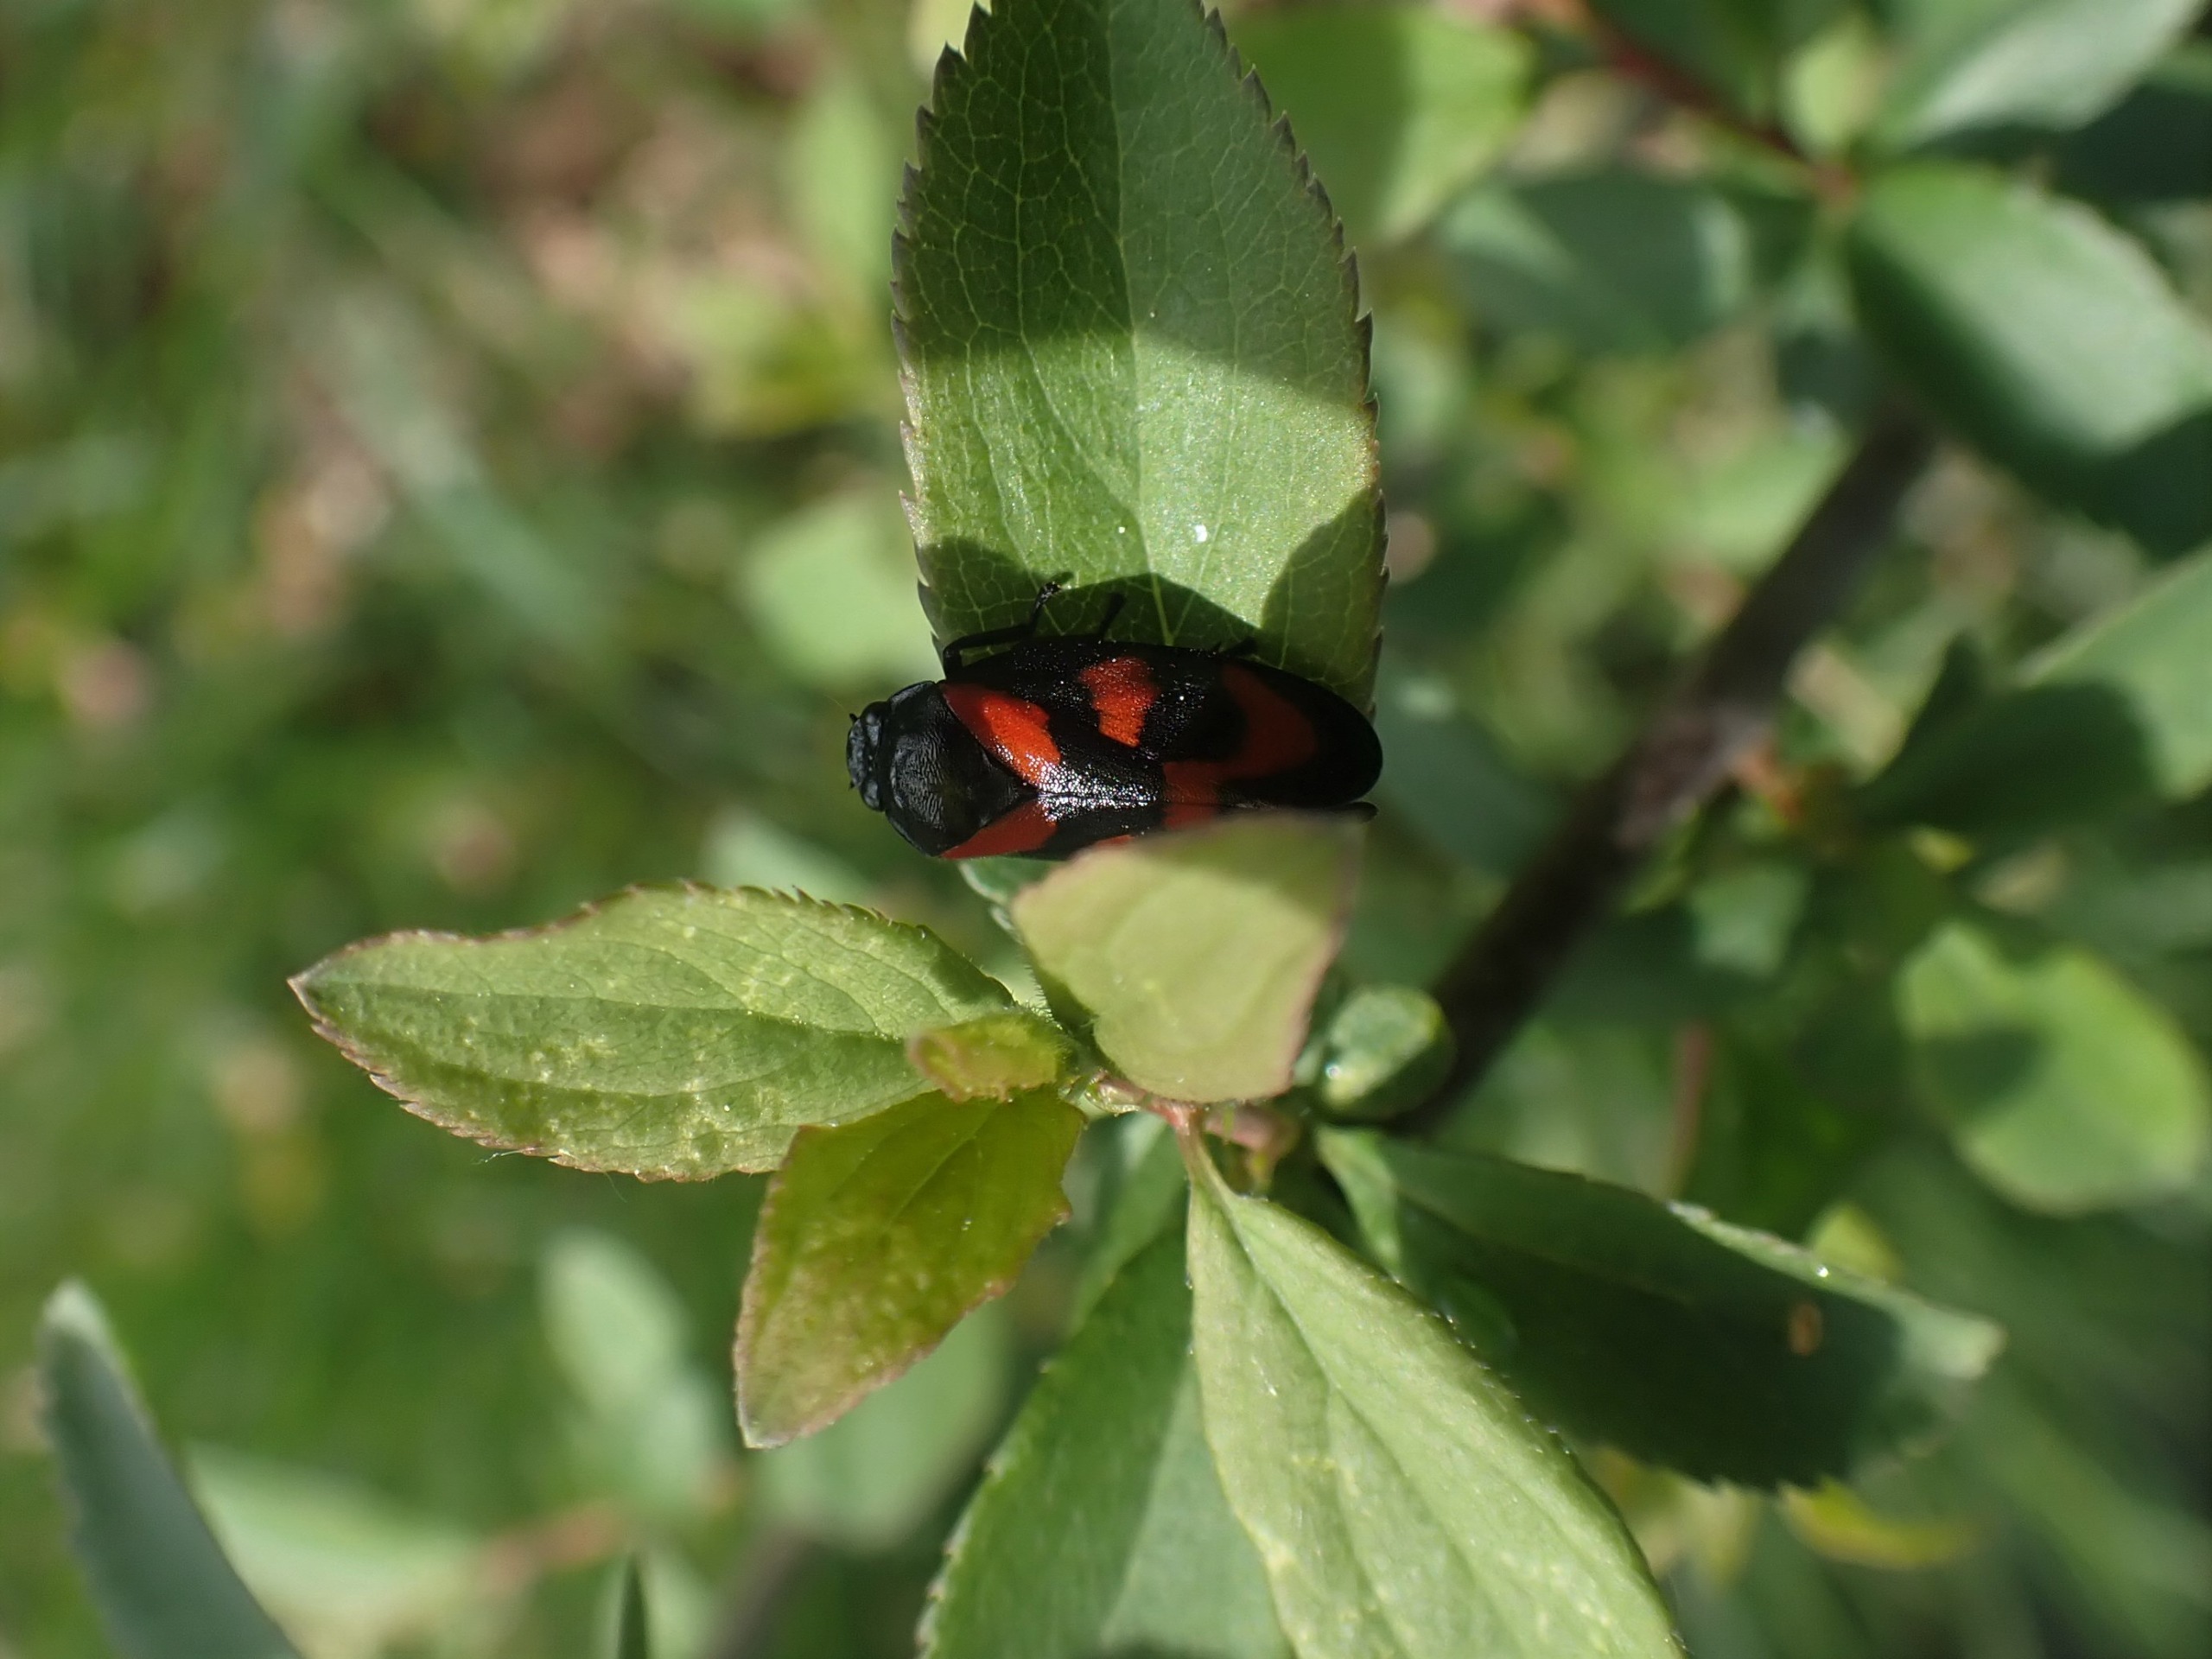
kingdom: Animalia
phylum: Arthropoda
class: Insecta
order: Hemiptera
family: Cercopidae
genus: Cercopis
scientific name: Cercopis vulnerata
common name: Blodcikade
